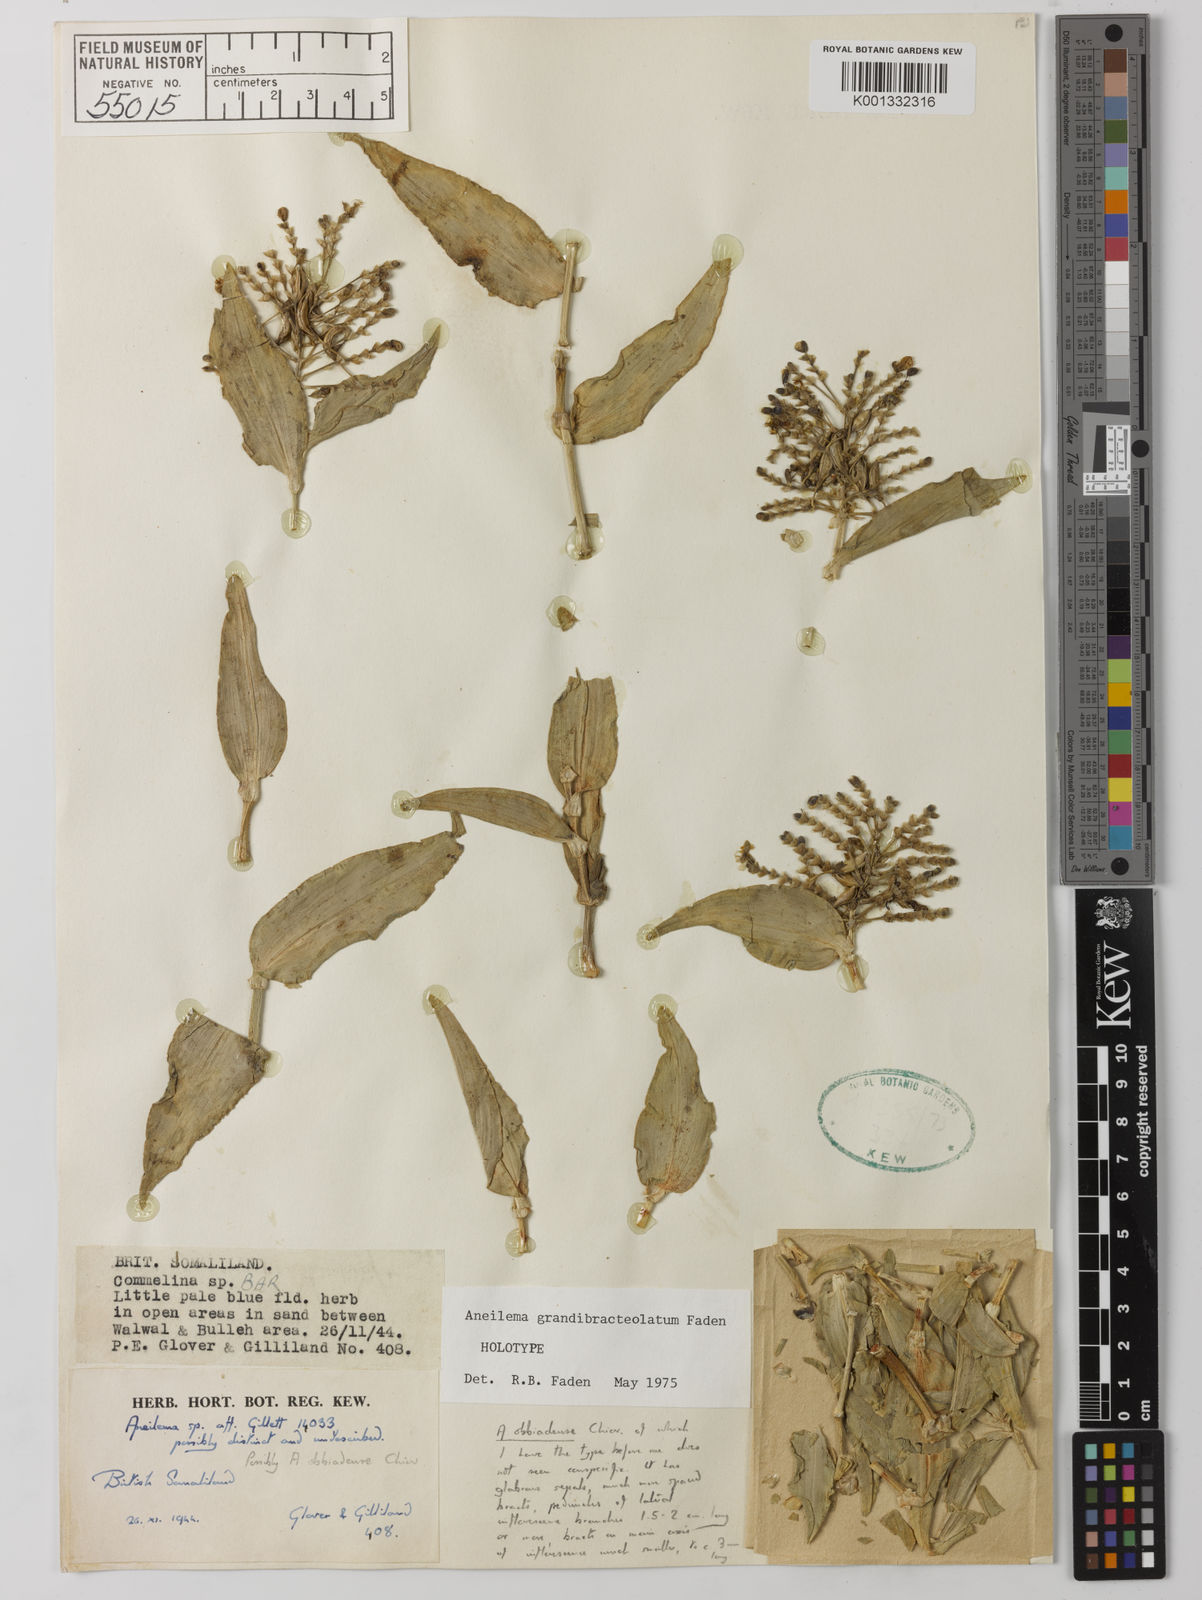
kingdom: Plantae
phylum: Tracheophyta
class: Liliopsida
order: Commelinales
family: Commelinaceae
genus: Aneilema
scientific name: Aneilema grandibracteolatum
